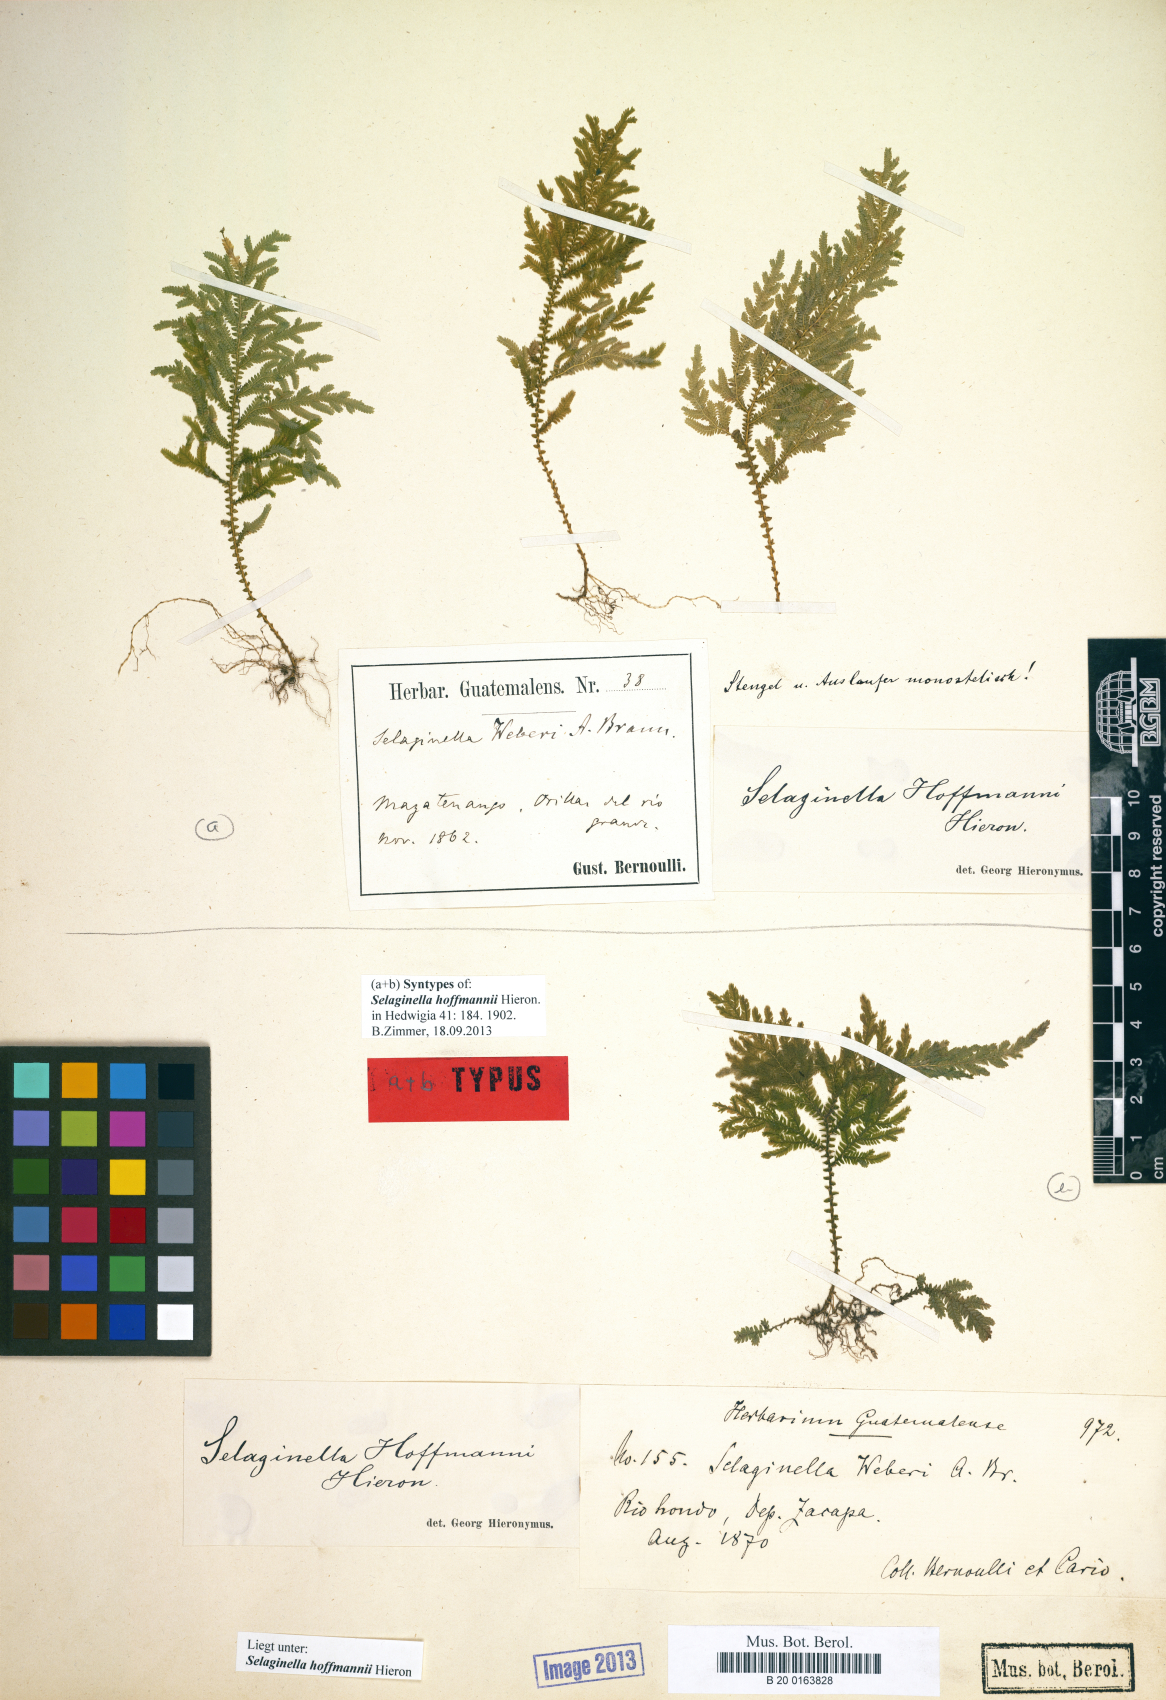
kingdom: Plantae
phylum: Tracheophyta
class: Lycopodiopsida
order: Selaginellales
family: Selaginellaceae
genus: Selaginella
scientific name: Selaginella hoffmannii
